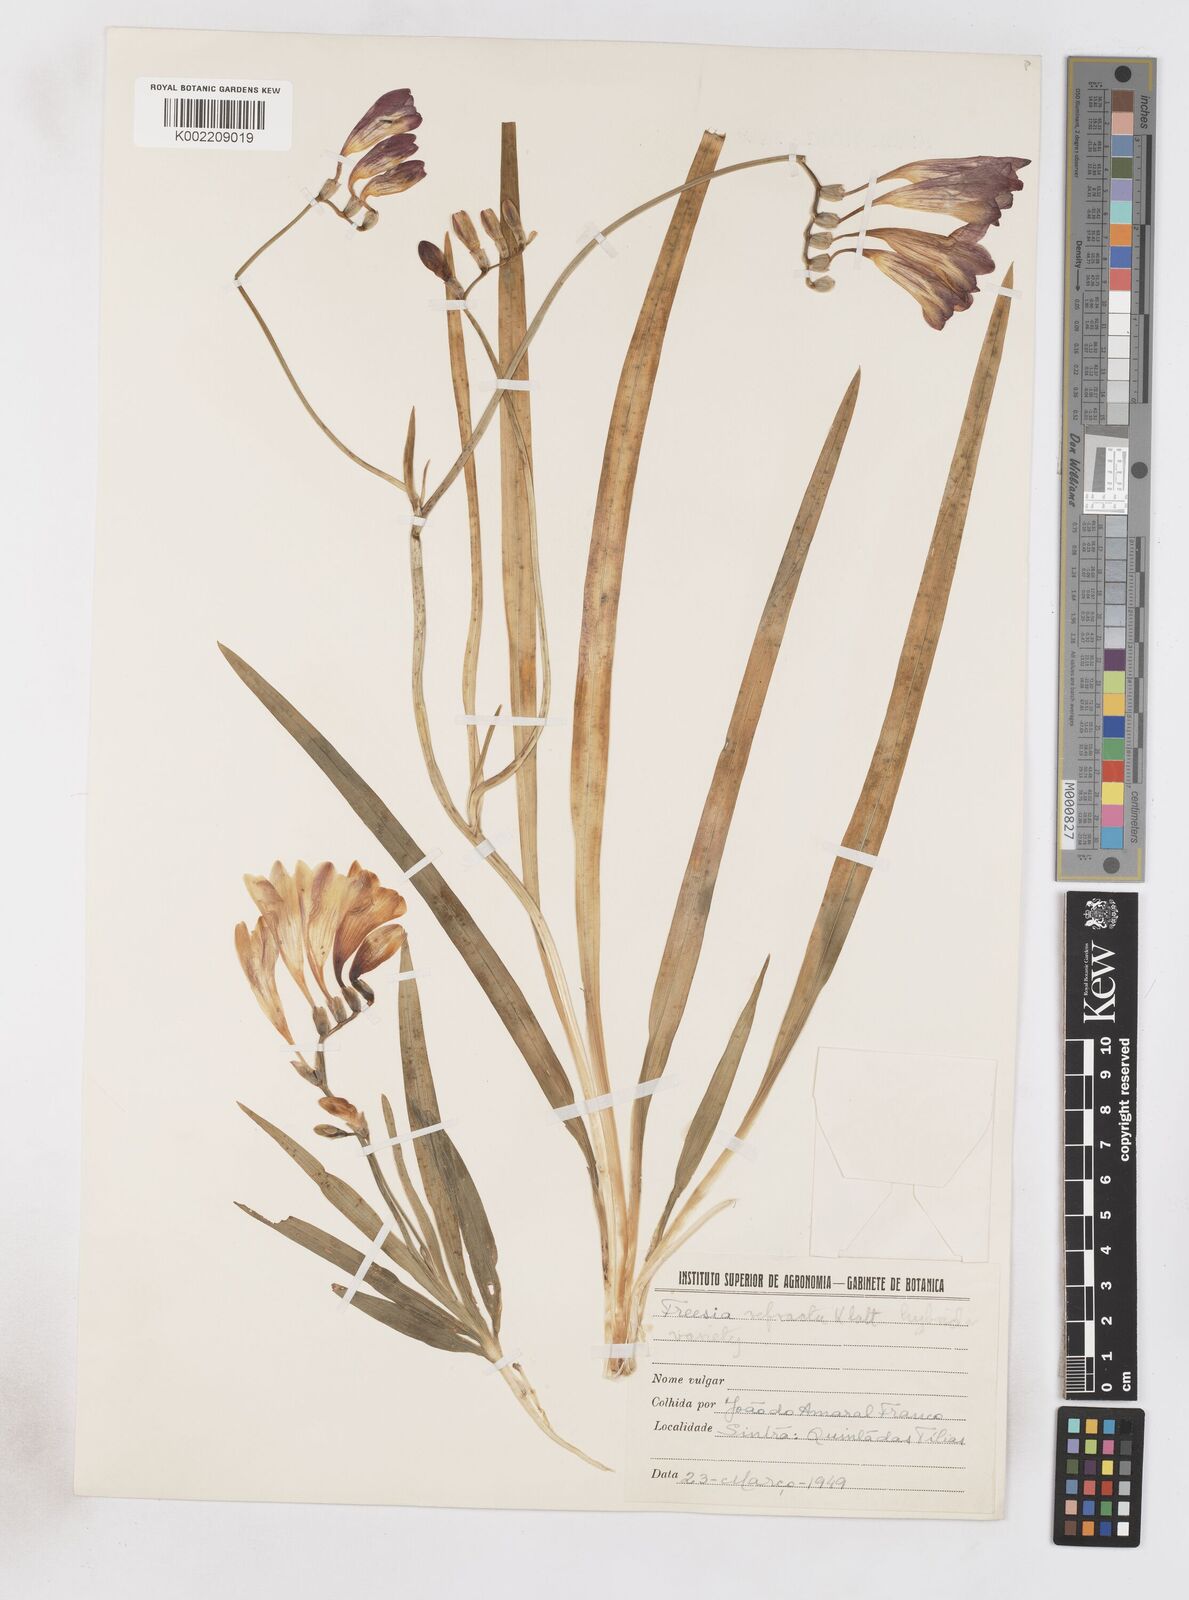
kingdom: Plantae
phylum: Tracheophyta
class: Liliopsida
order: Asparagales
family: Iridaceae
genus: Freesia
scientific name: Freesia refracta
